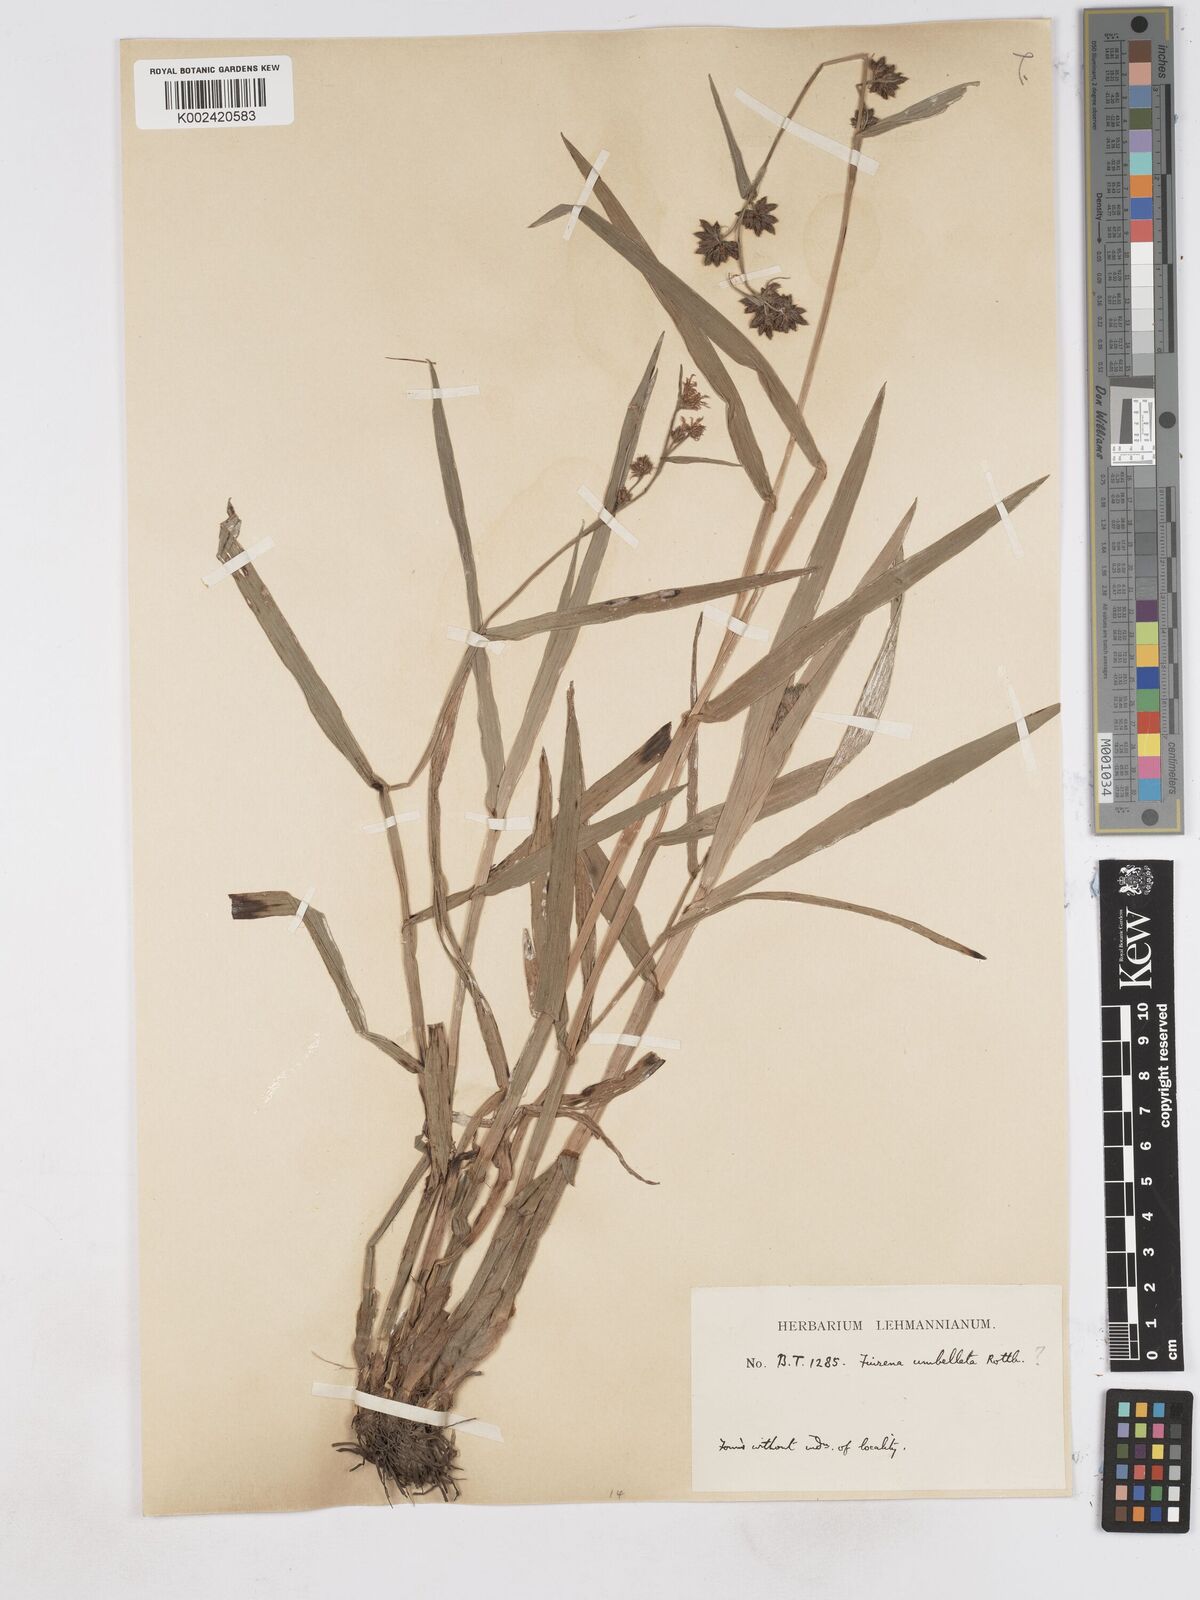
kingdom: Plantae
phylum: Tracheophyta
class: Liliopsida
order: Poales
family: Cyperaceae
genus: Fuirena
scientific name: Fuirena umbellata
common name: Yefen
